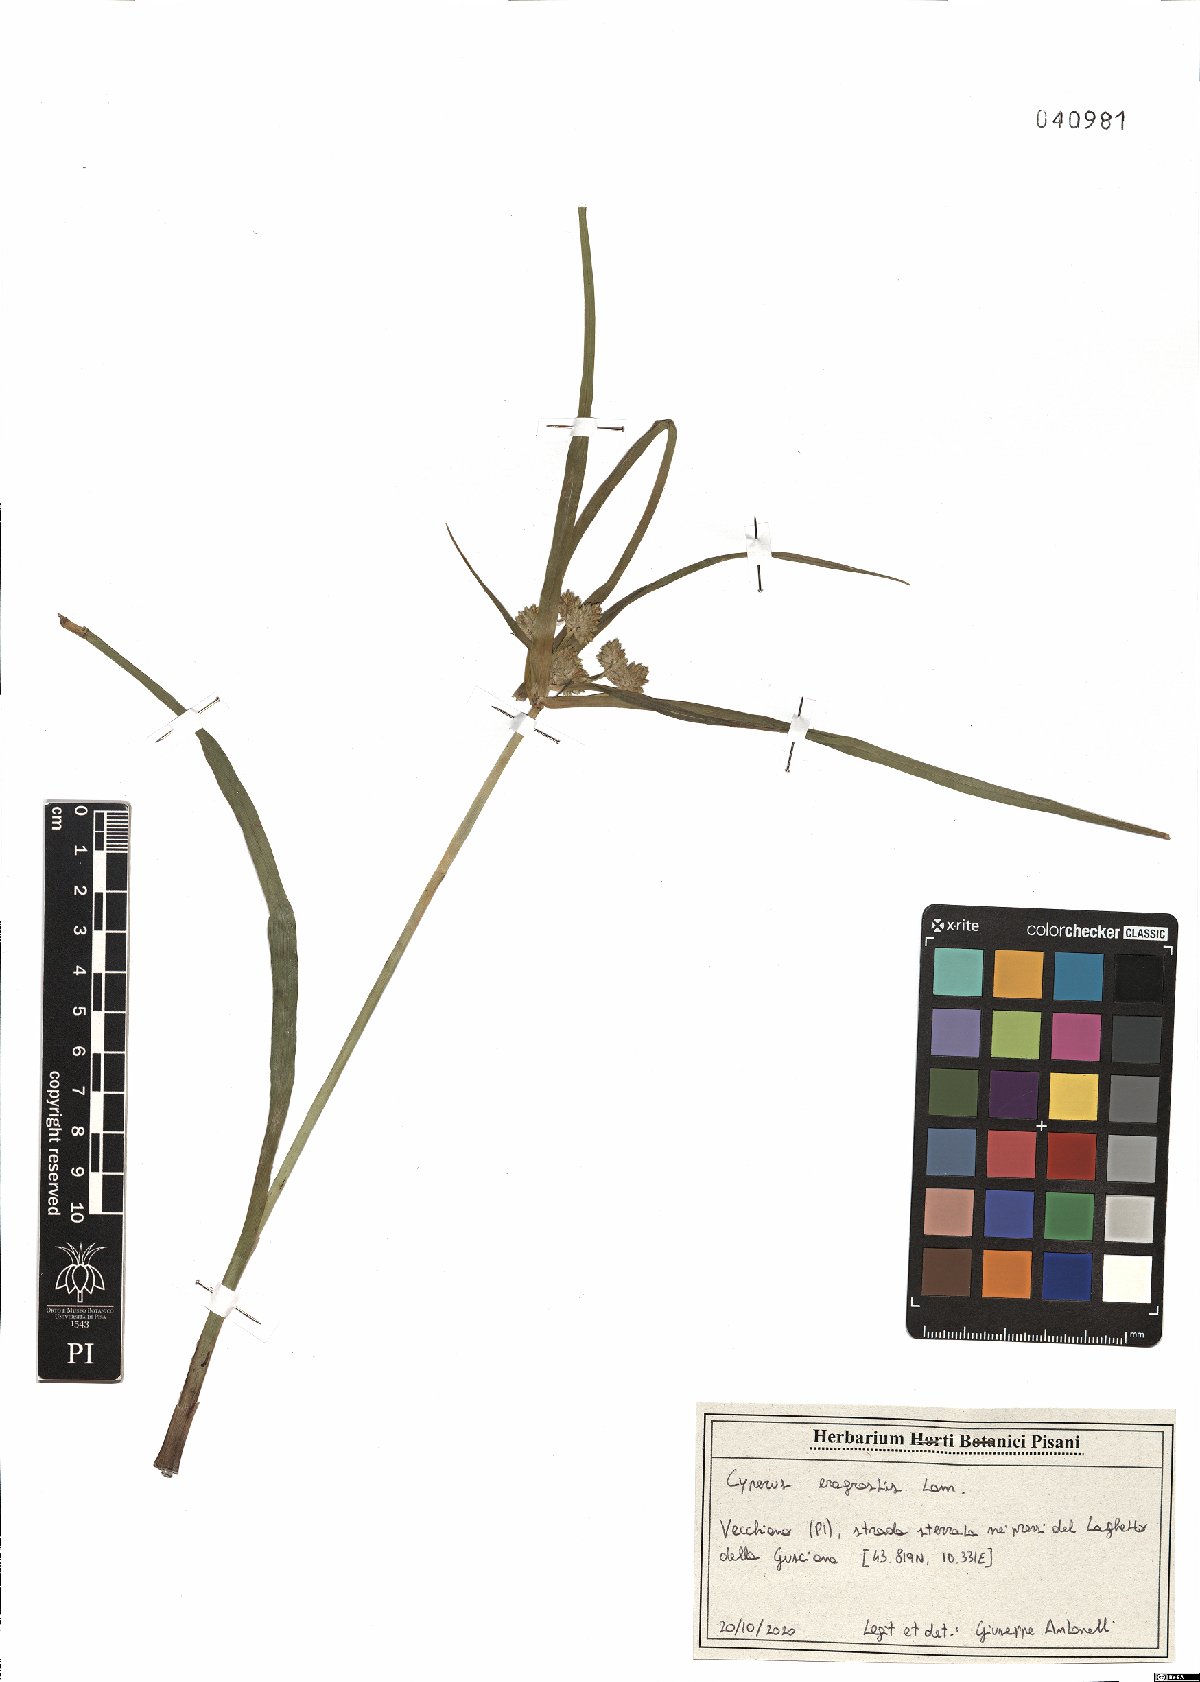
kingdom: Plantae
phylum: Tracheophyta
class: Liliopsida
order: Poales
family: Cyperaceae
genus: Cyperus
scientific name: Cyperus eragrostis
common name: Tall flatsedge
